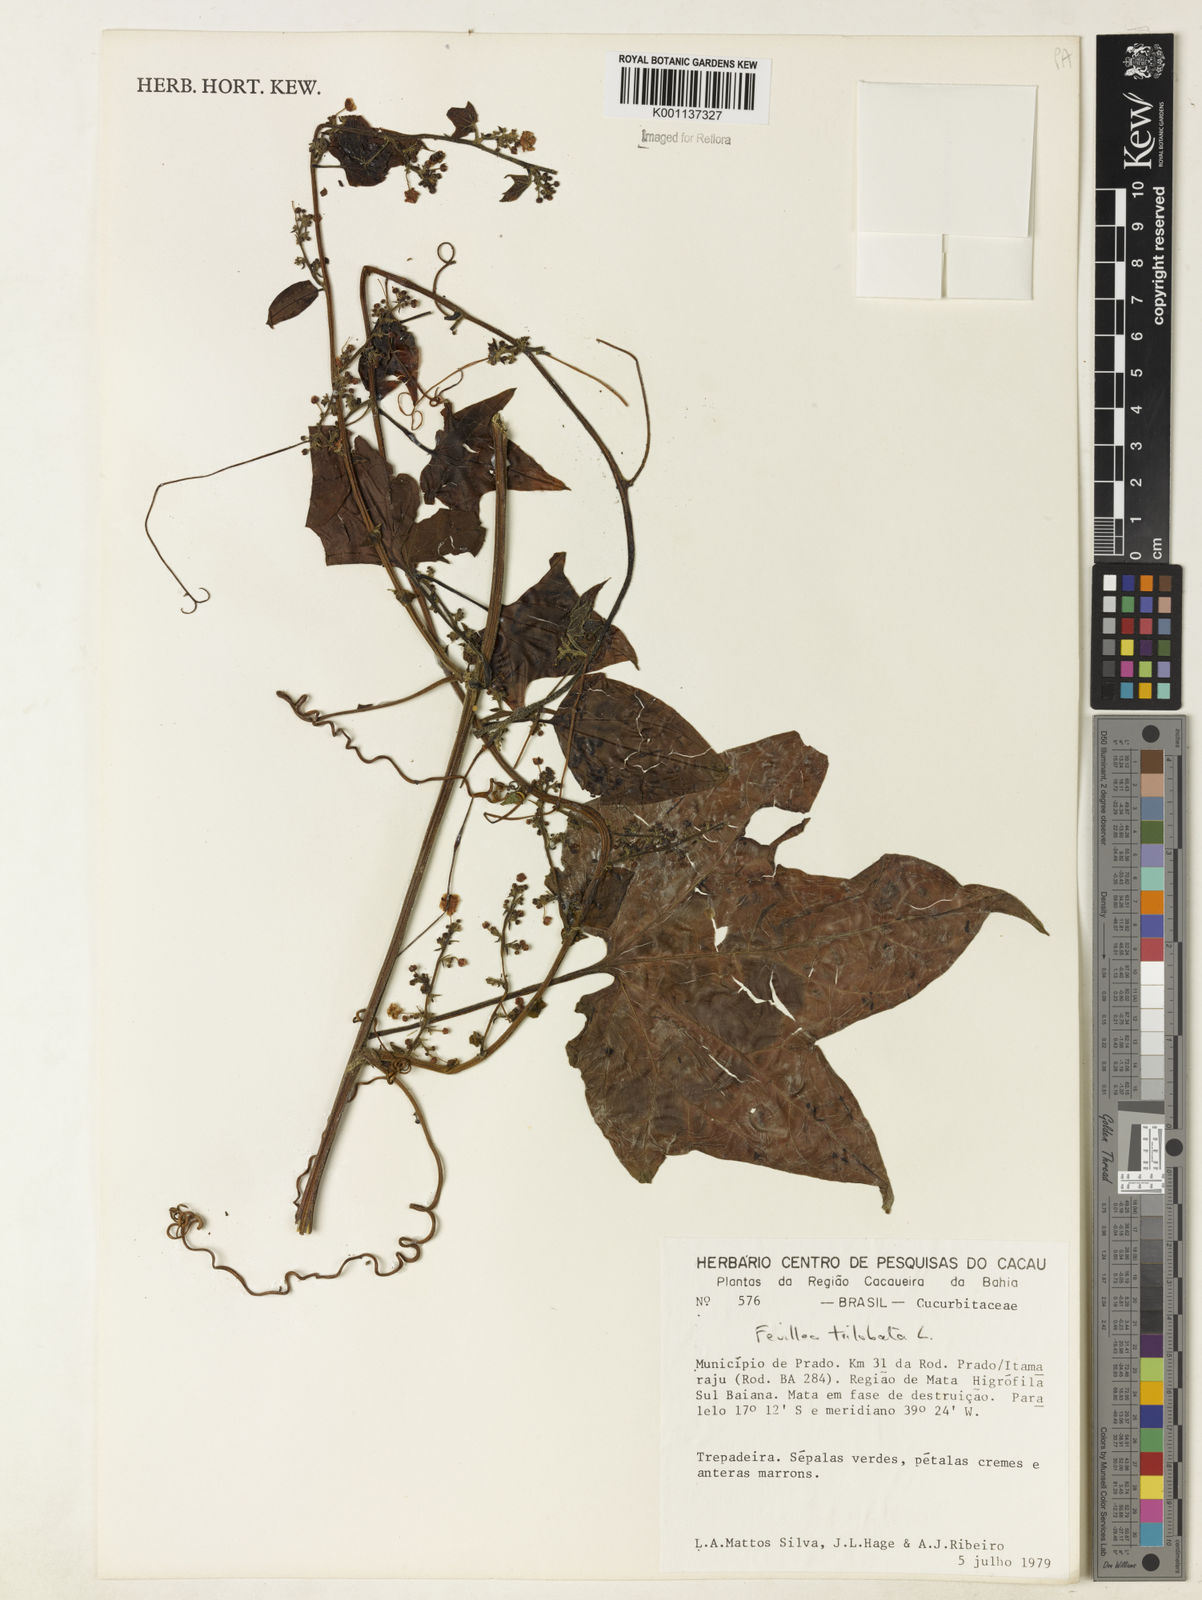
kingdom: Plantae
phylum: Tracheophyta
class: Magnoliopsida
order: Cucurbitales
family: Cucurbitaceae
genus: Fevillea
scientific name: Fevillea trilobata
